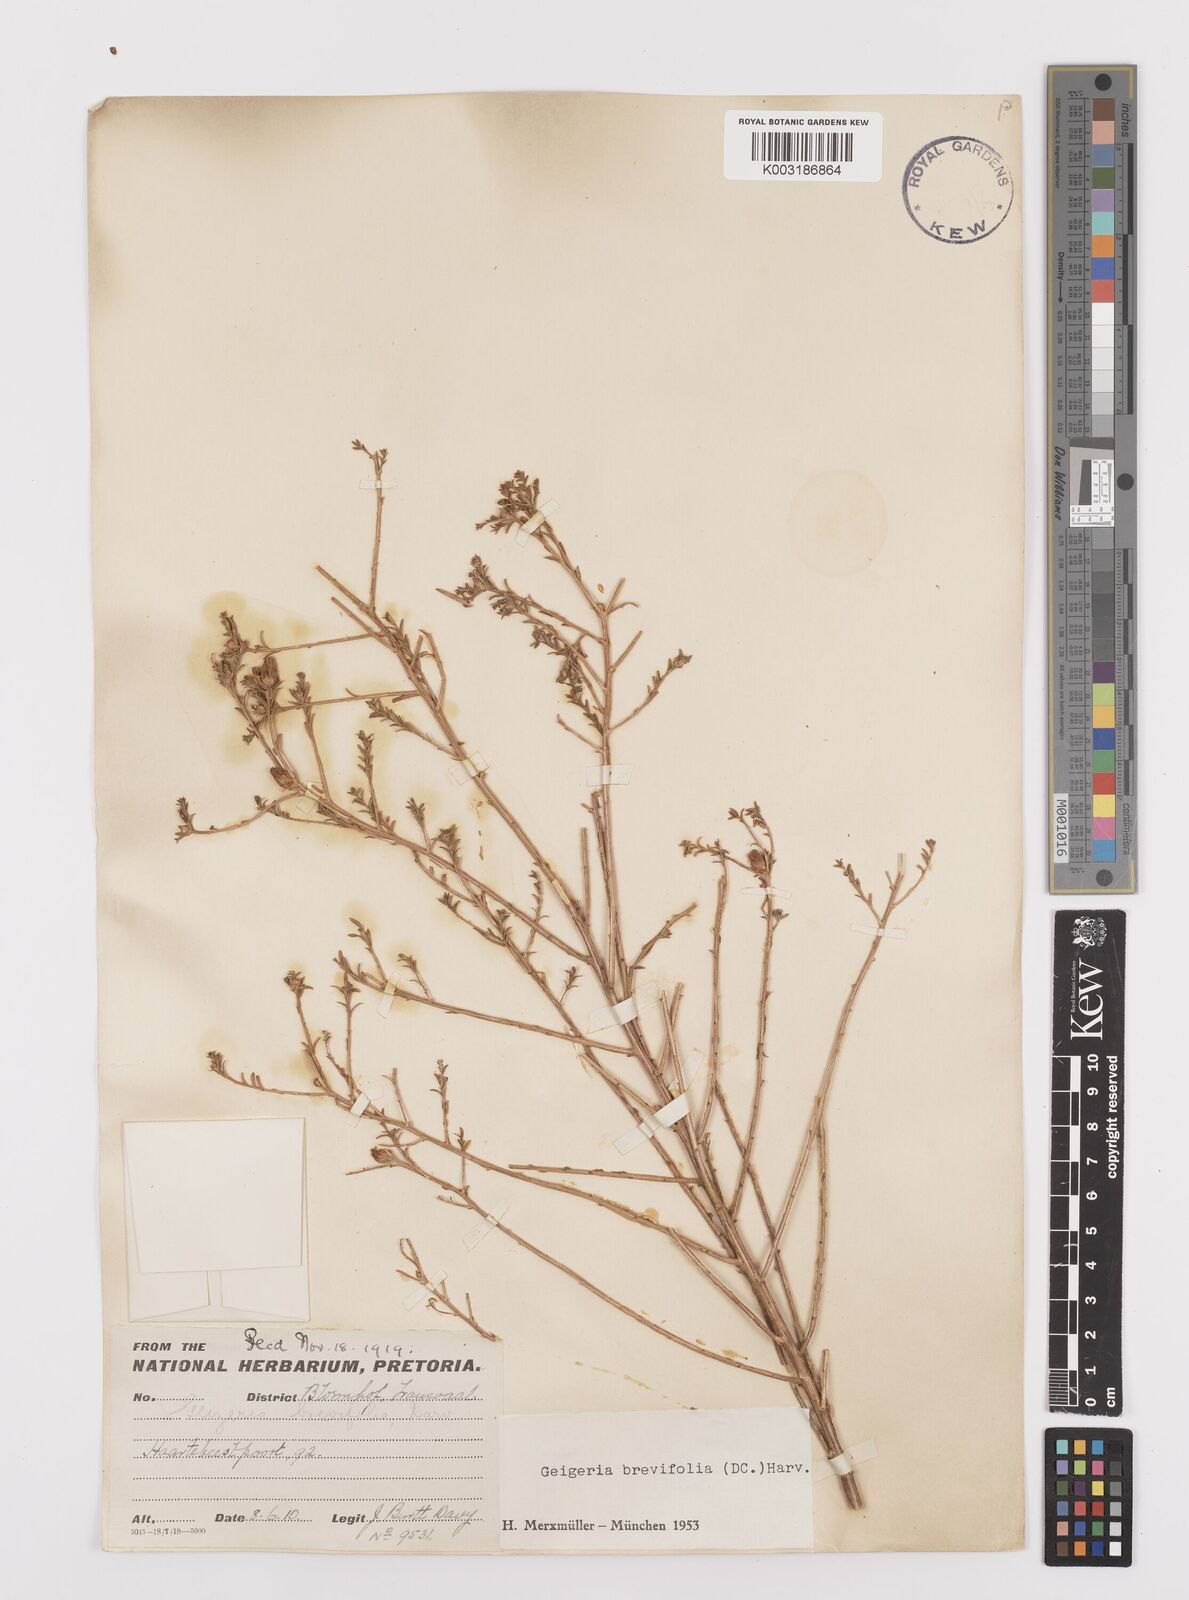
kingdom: Plantae
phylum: Tracheophyta
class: Magnoliopsida
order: Asterales
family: Asteraceae
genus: Geigeria
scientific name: Geigeria brevifolia
